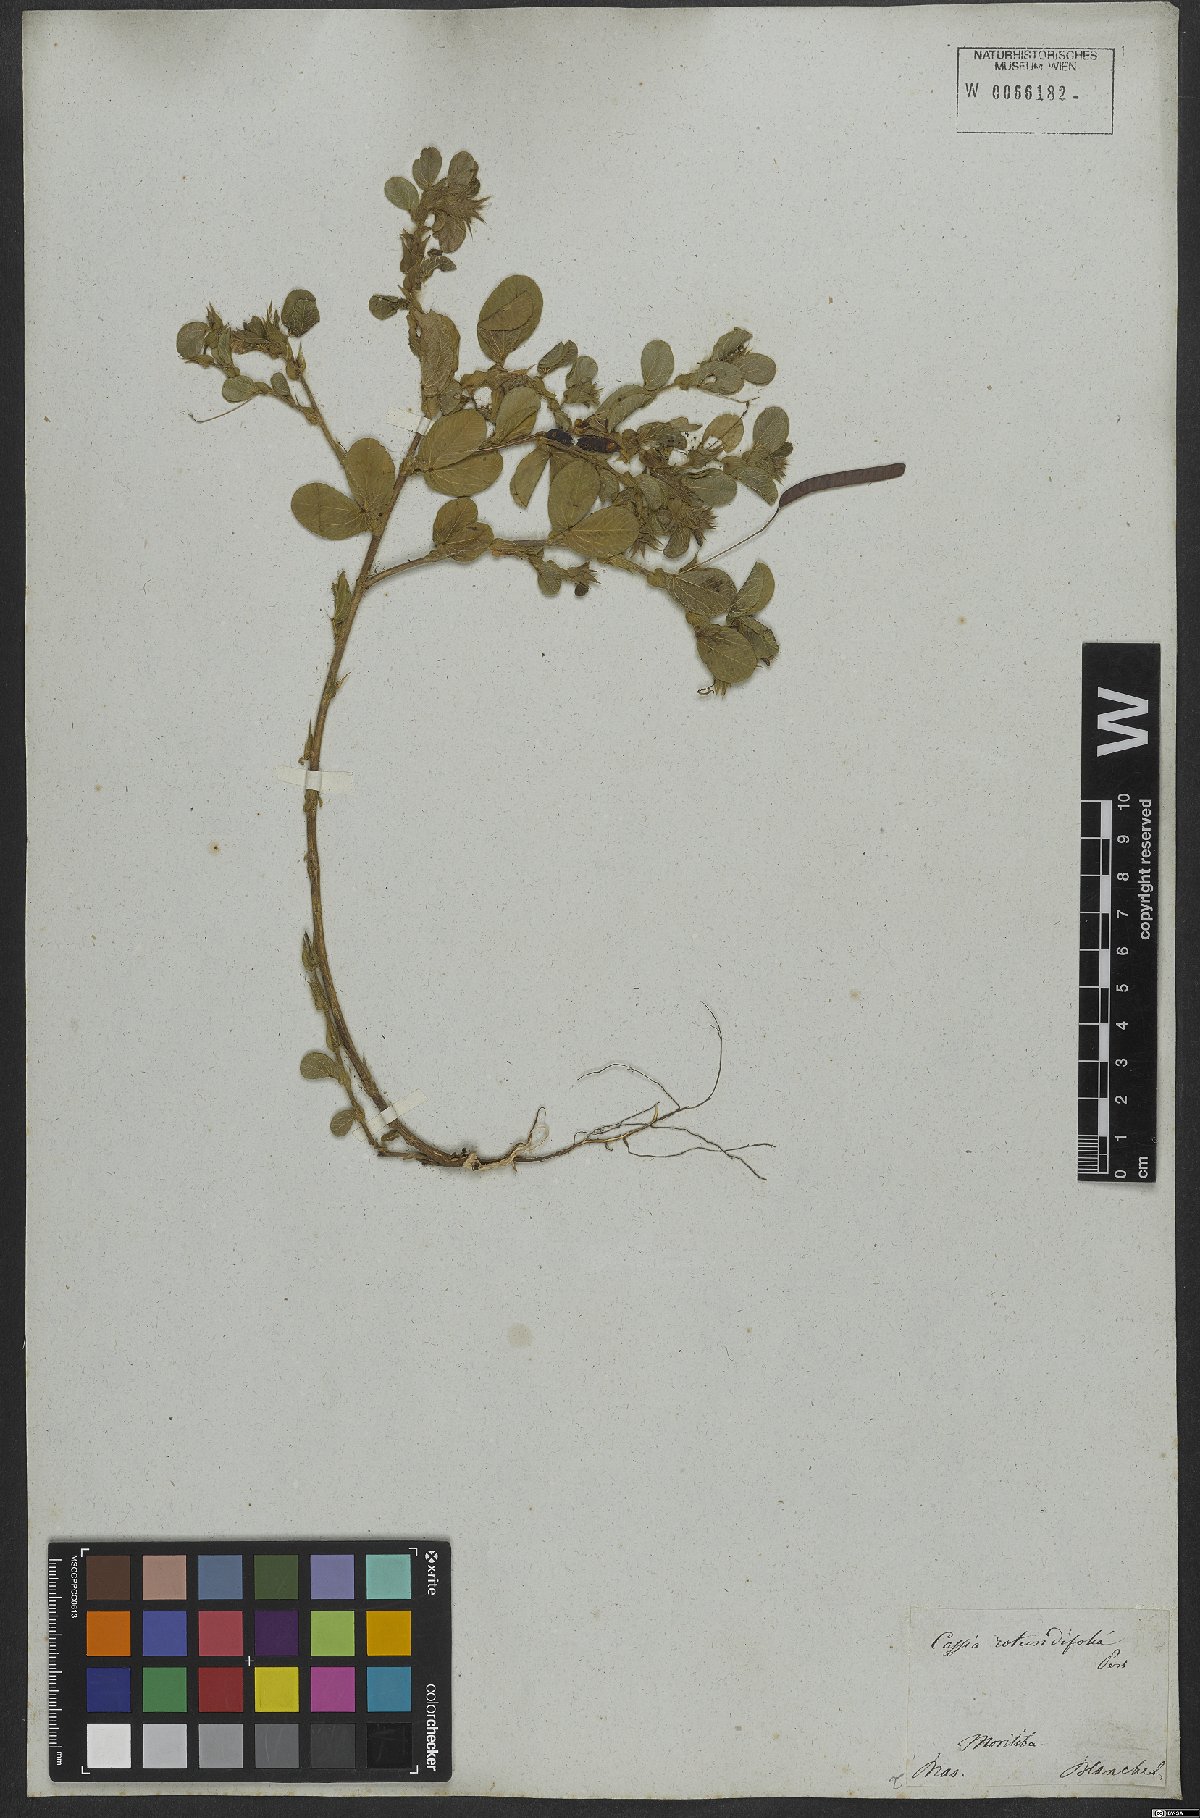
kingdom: Plantae
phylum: Tracheophyta
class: Magnoliopsida
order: Fabales
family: Fabaceae
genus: Chamaecrista
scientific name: Chamaecrista rotundifolia
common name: Round-leaf cassia
